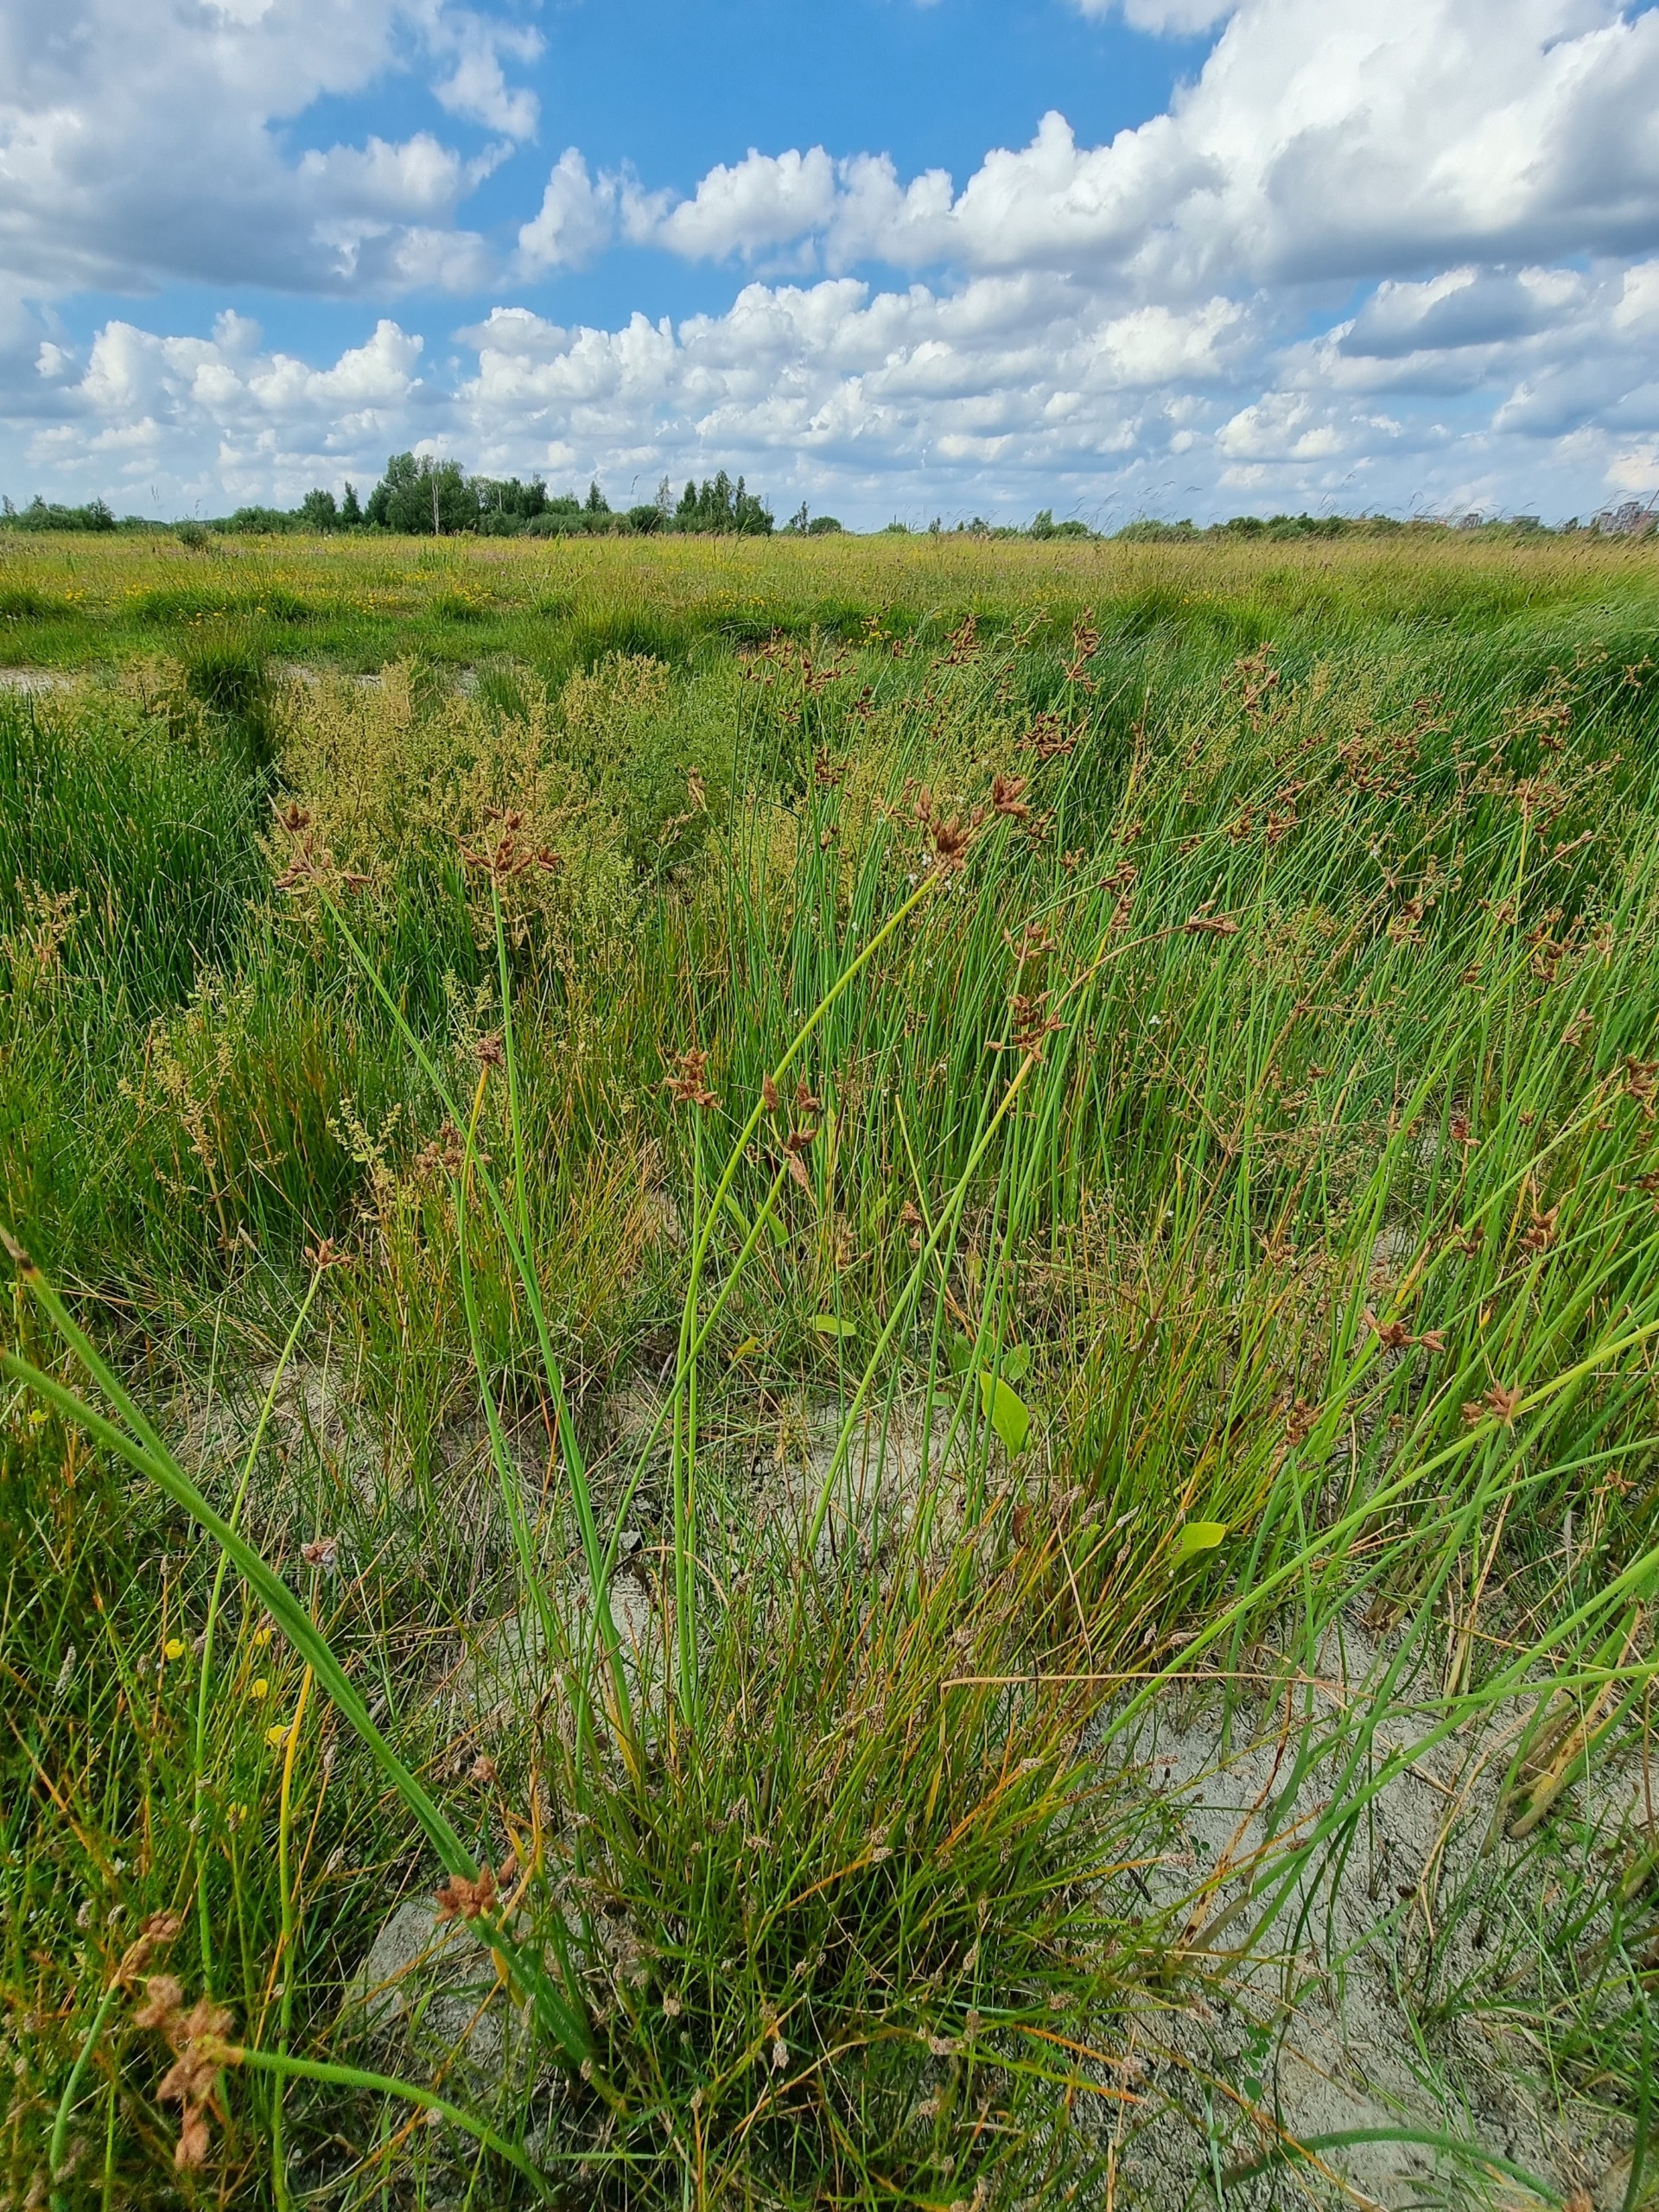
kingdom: Plantae
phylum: Tracheophyta
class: Liliopsida
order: Poales
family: Cyperaceae
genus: Schoenoplectus
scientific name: Schoenoplectus lacustris
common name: Sø-kogleaks
